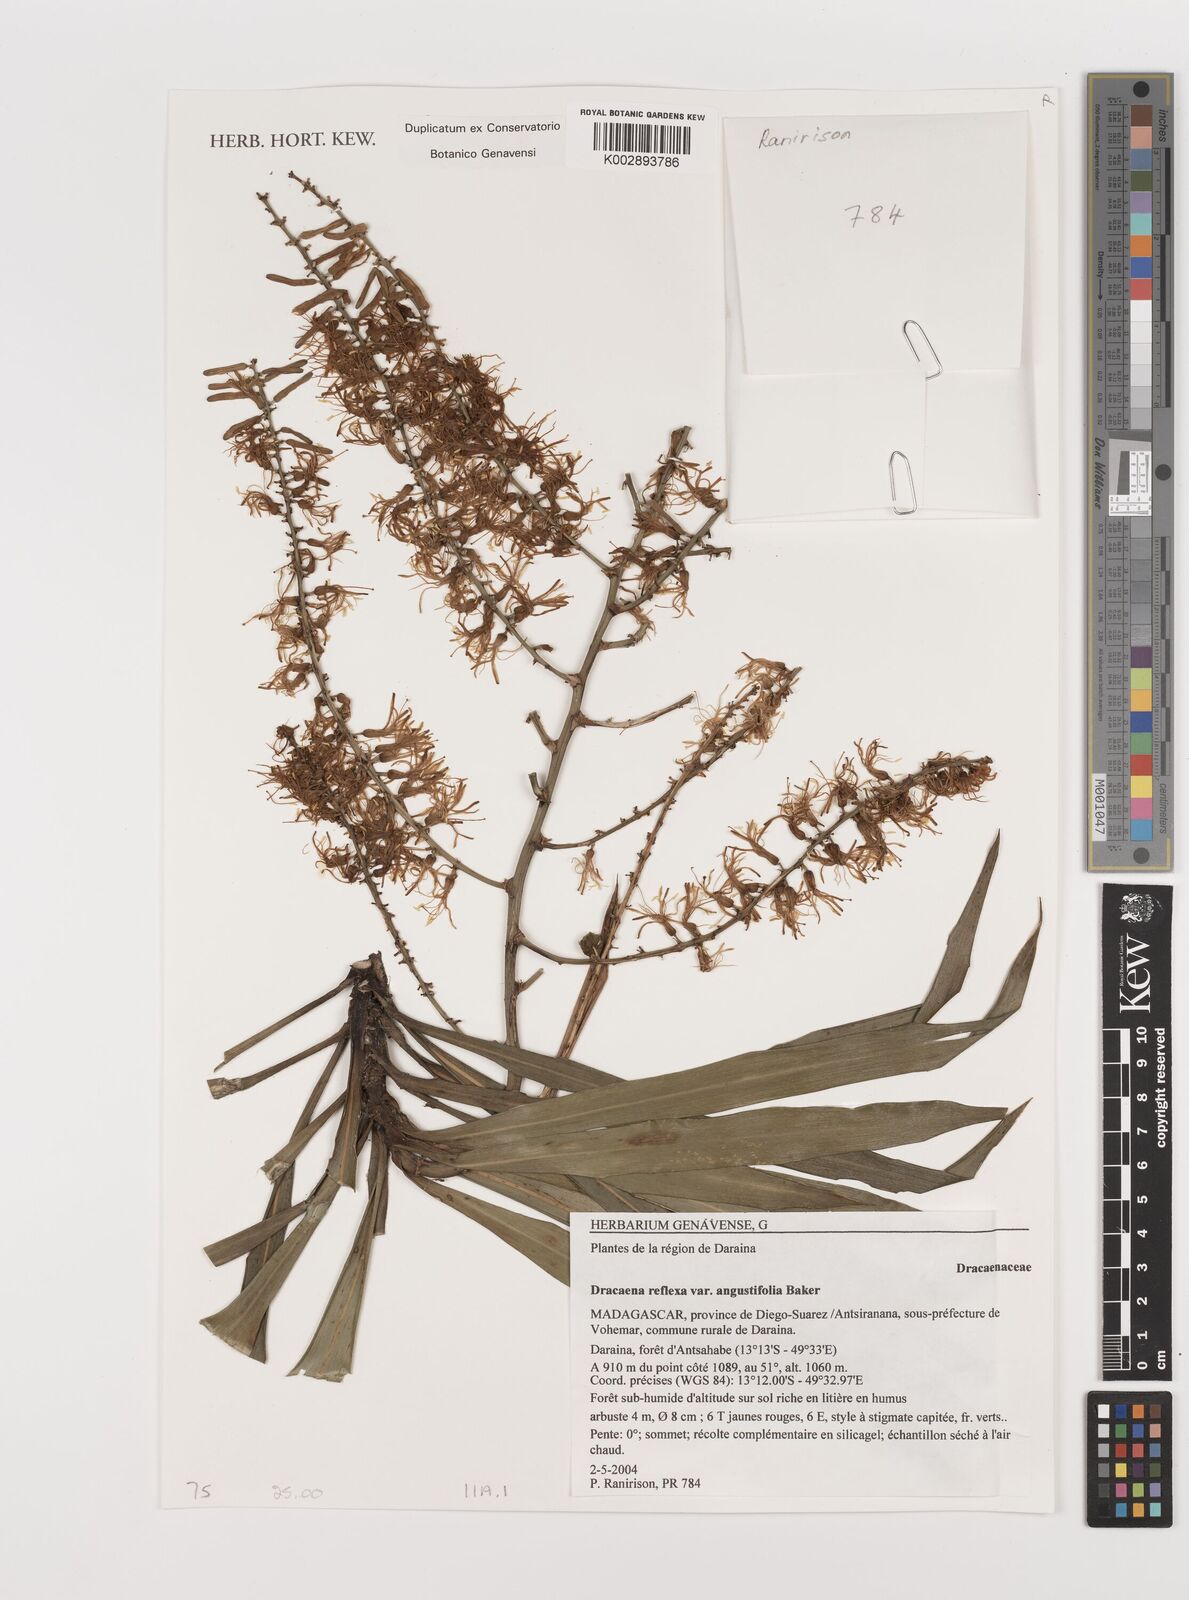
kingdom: Plantae
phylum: Tracheophyta
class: Liliopsida
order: Asparagales
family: Asparagaceae
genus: Dracaena
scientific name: Dracaena reflexa
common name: Song-of-india
